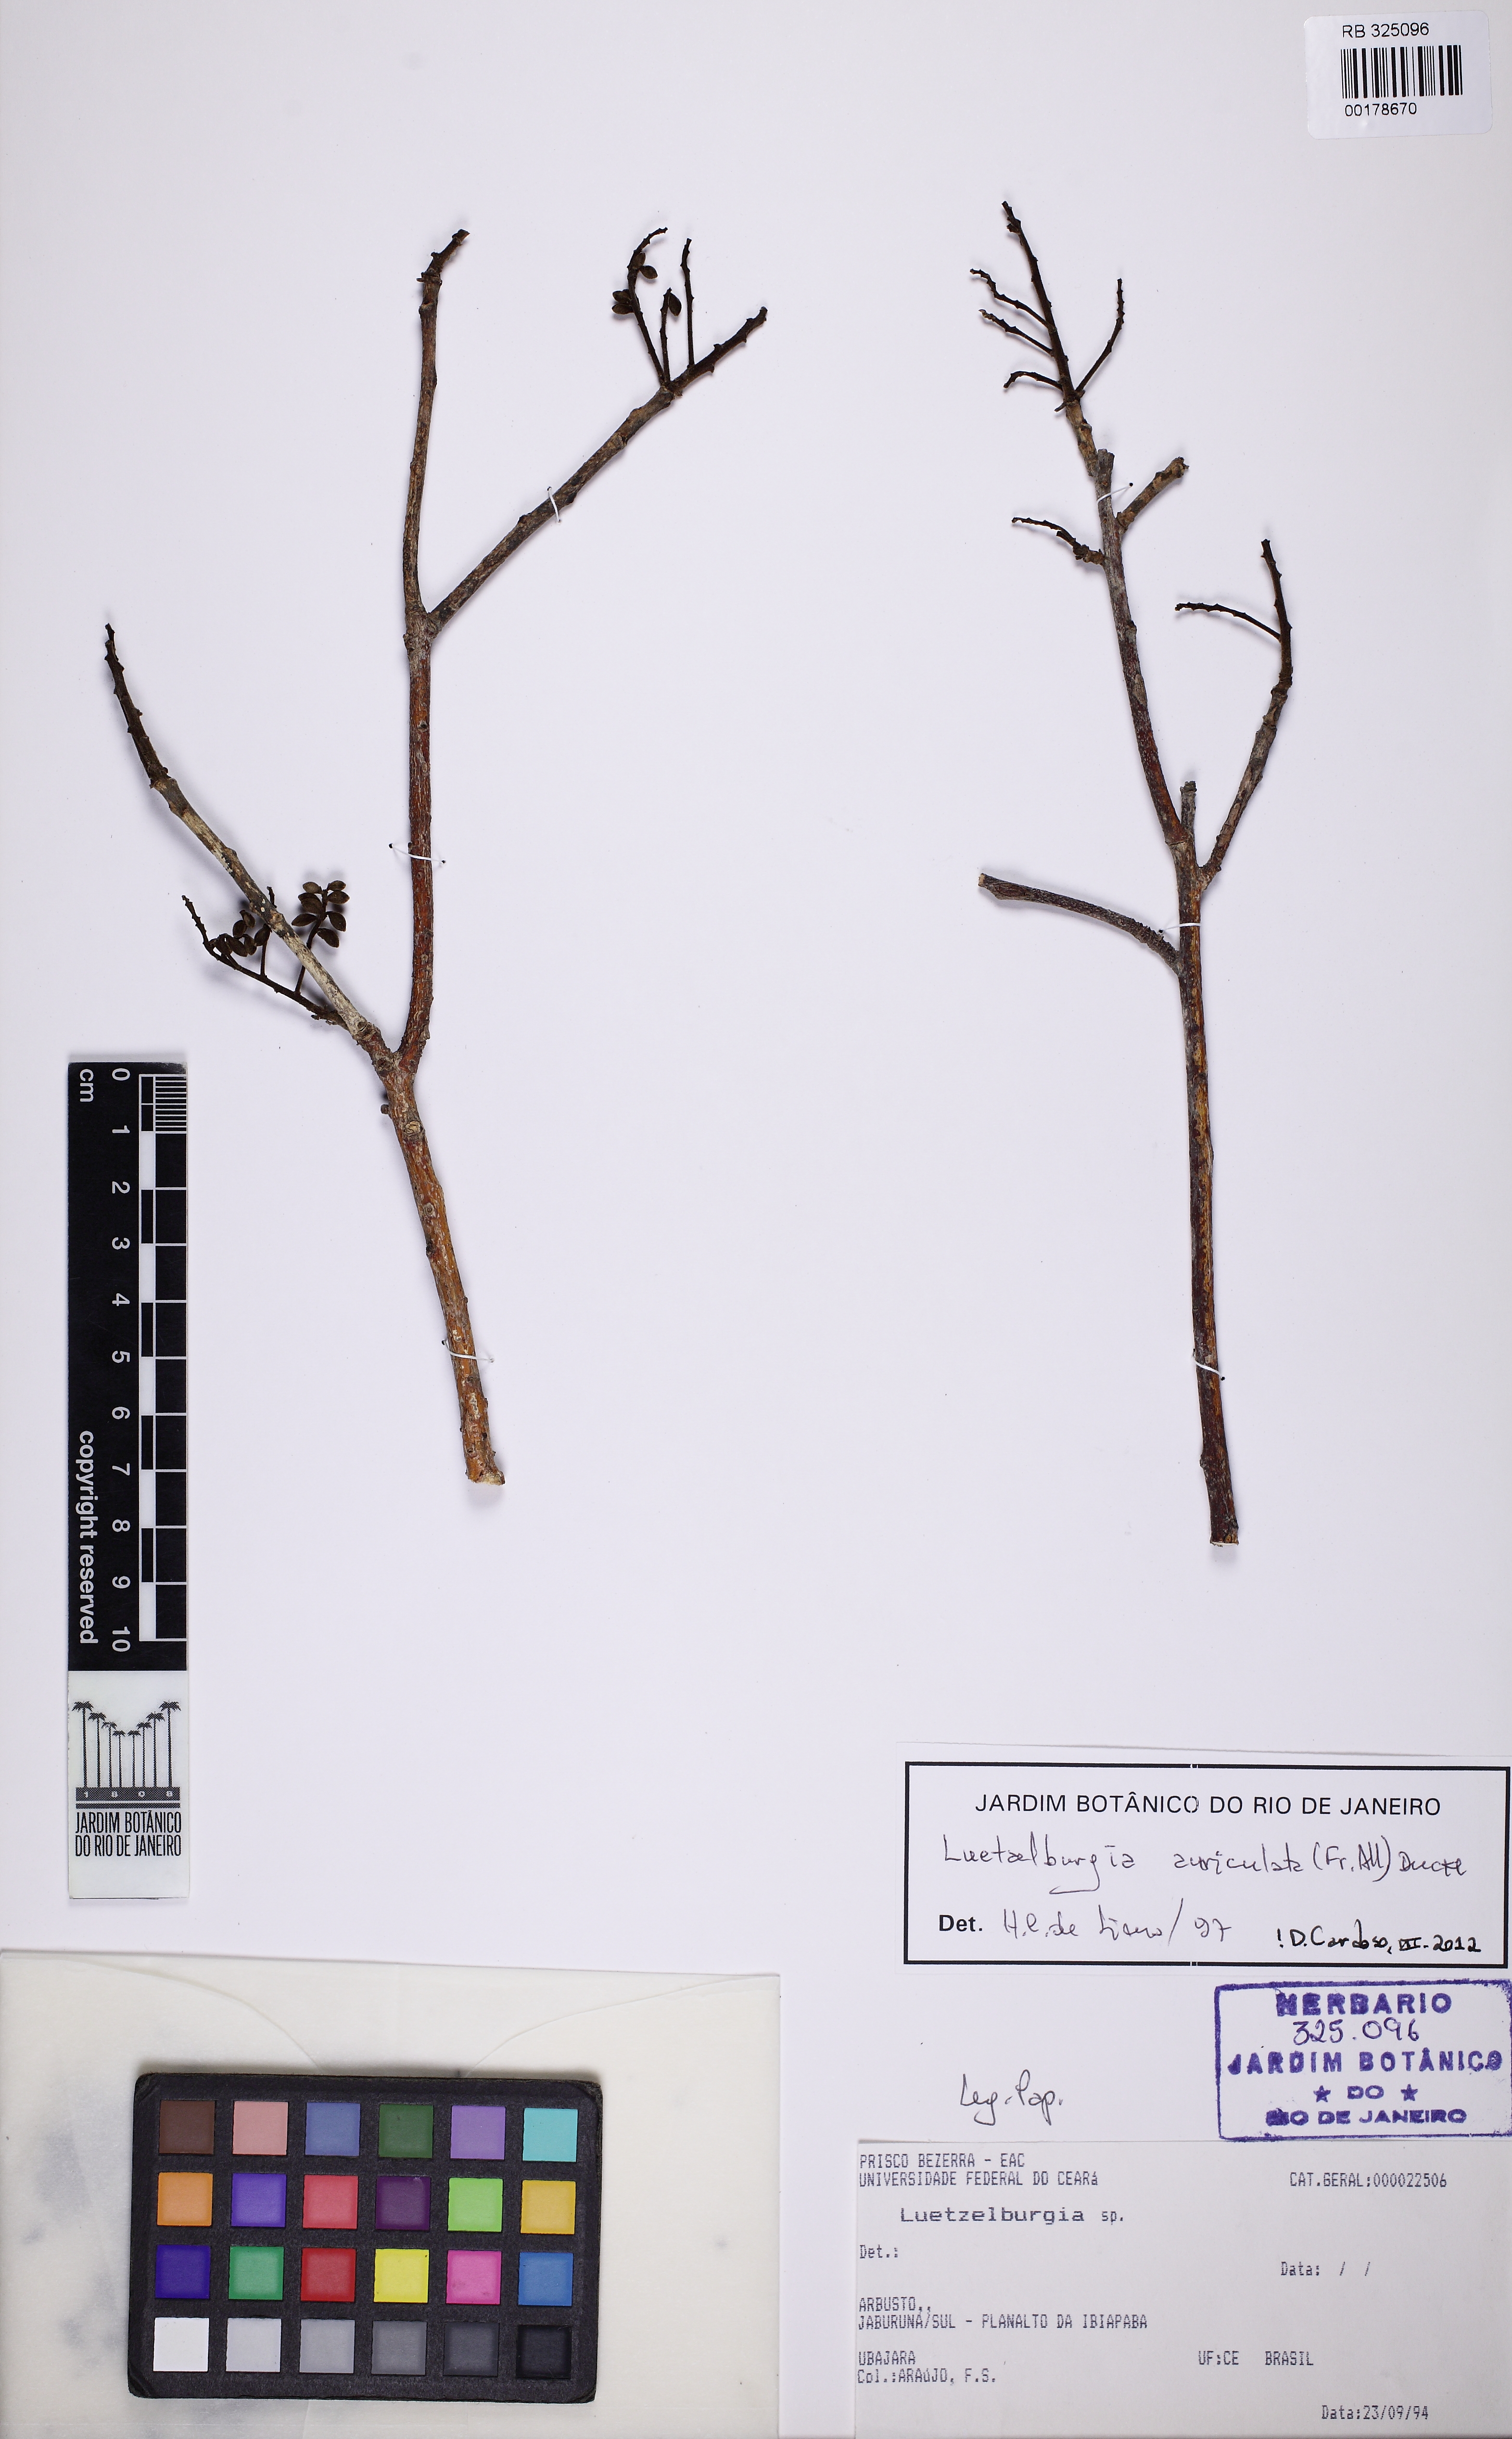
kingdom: Plantae
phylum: Tracheophyta
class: Magnoliopsida
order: Fabales
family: Fabaceae
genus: Luetzelburgia
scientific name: Luetzelburgia auriculata
